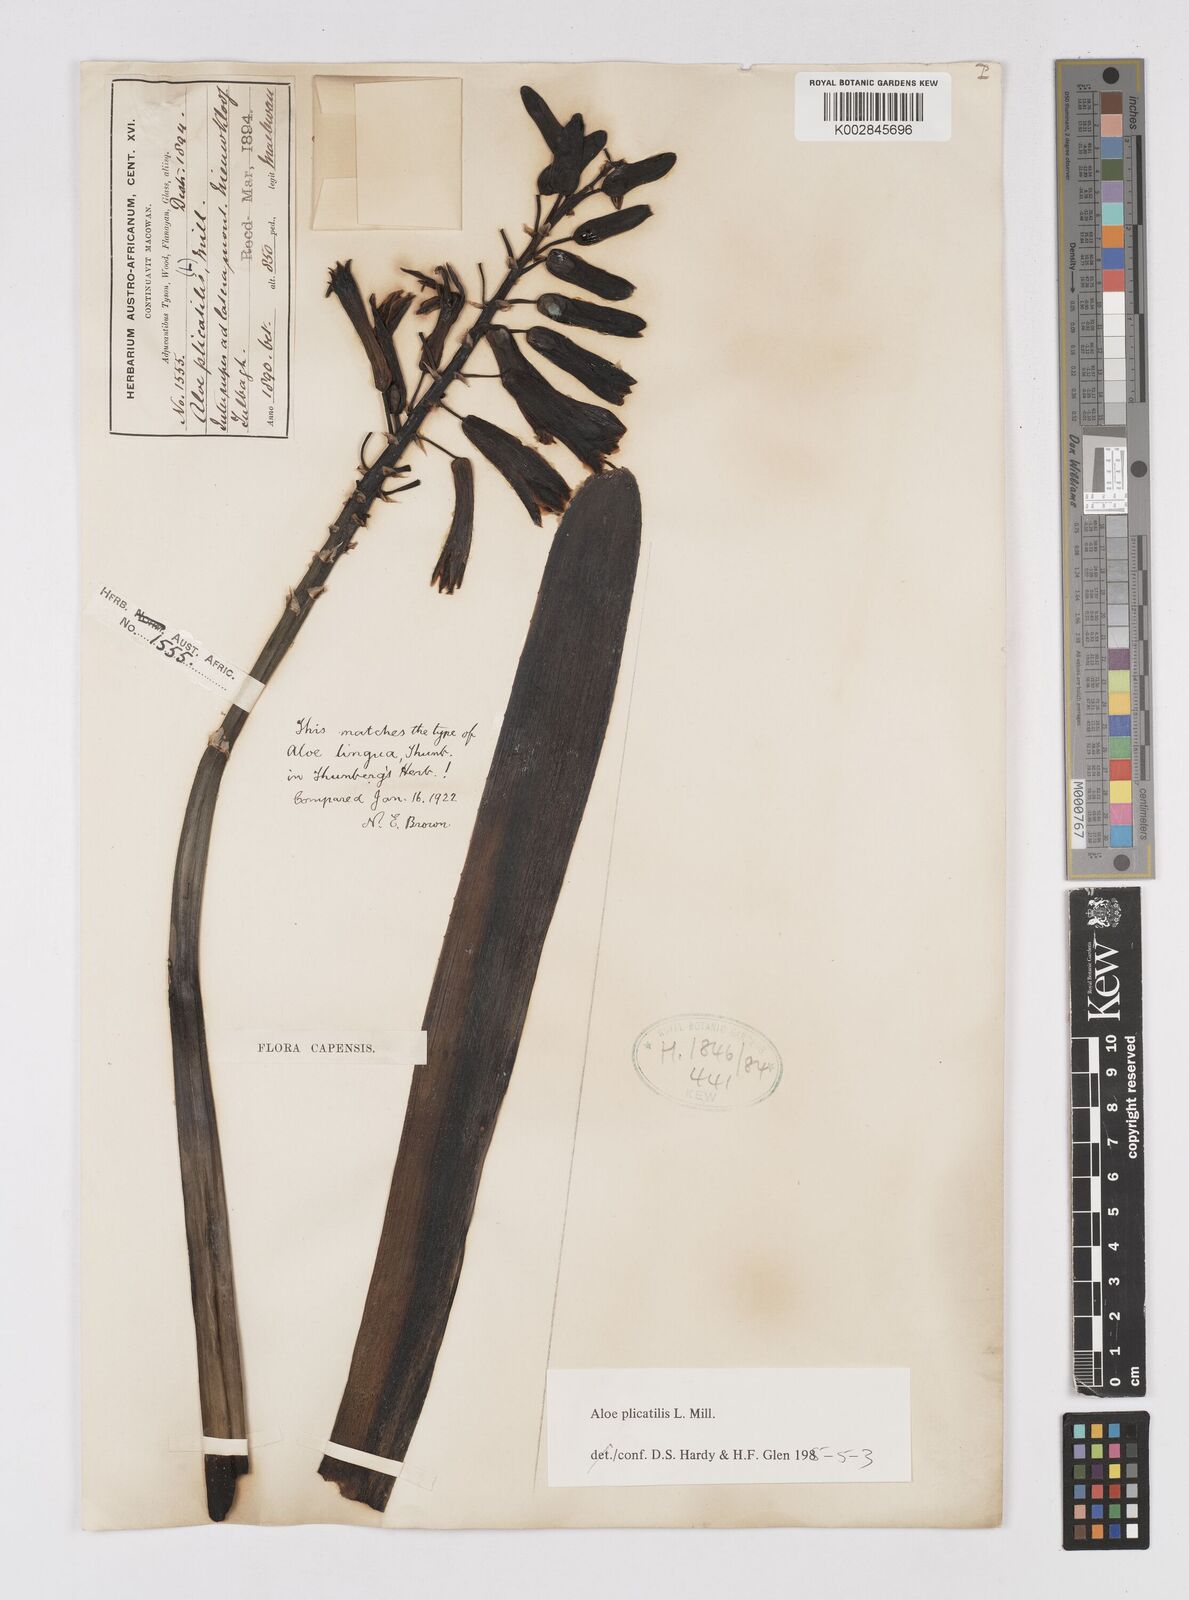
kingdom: Plantae
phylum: Tracheophyta
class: Liliopsida
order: Asparagales
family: Asphodelaceae
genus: Kumara
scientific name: Kumara plicatilis
